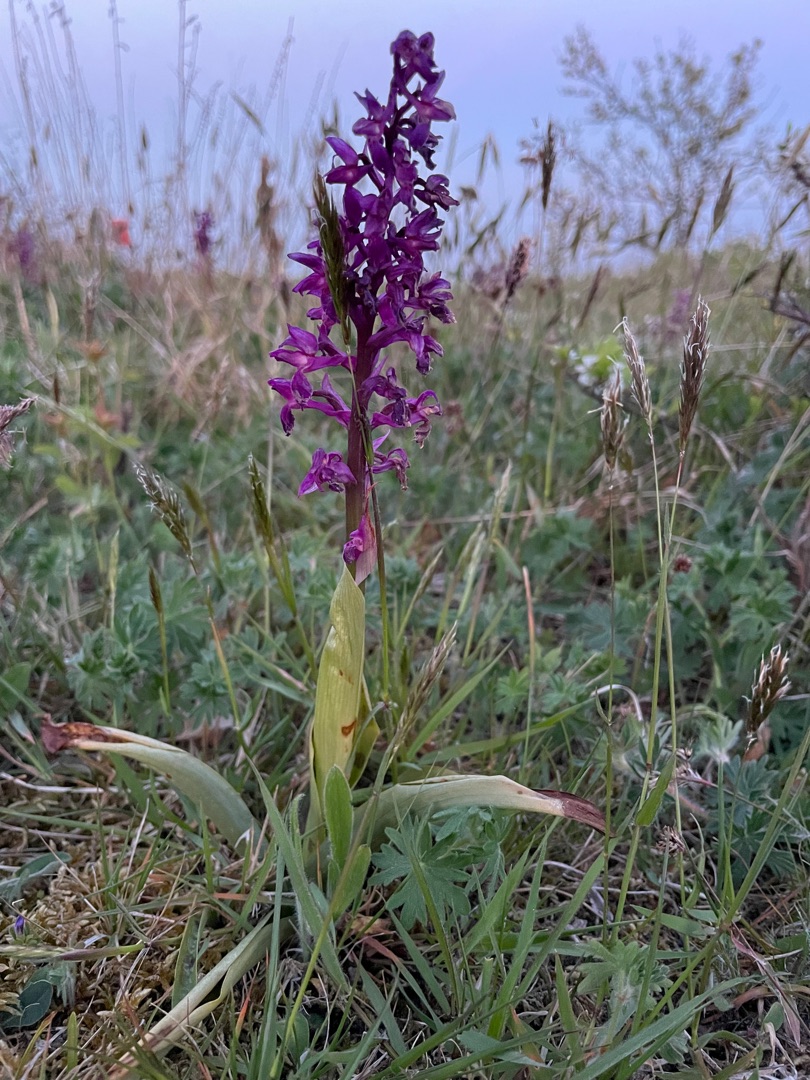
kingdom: Plantae
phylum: Tracheophyta
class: Liliopsida
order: Asparagales
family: Orchidaceae
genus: Orchis
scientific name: Orchis mascula
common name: Tyndakset gøgeurt
